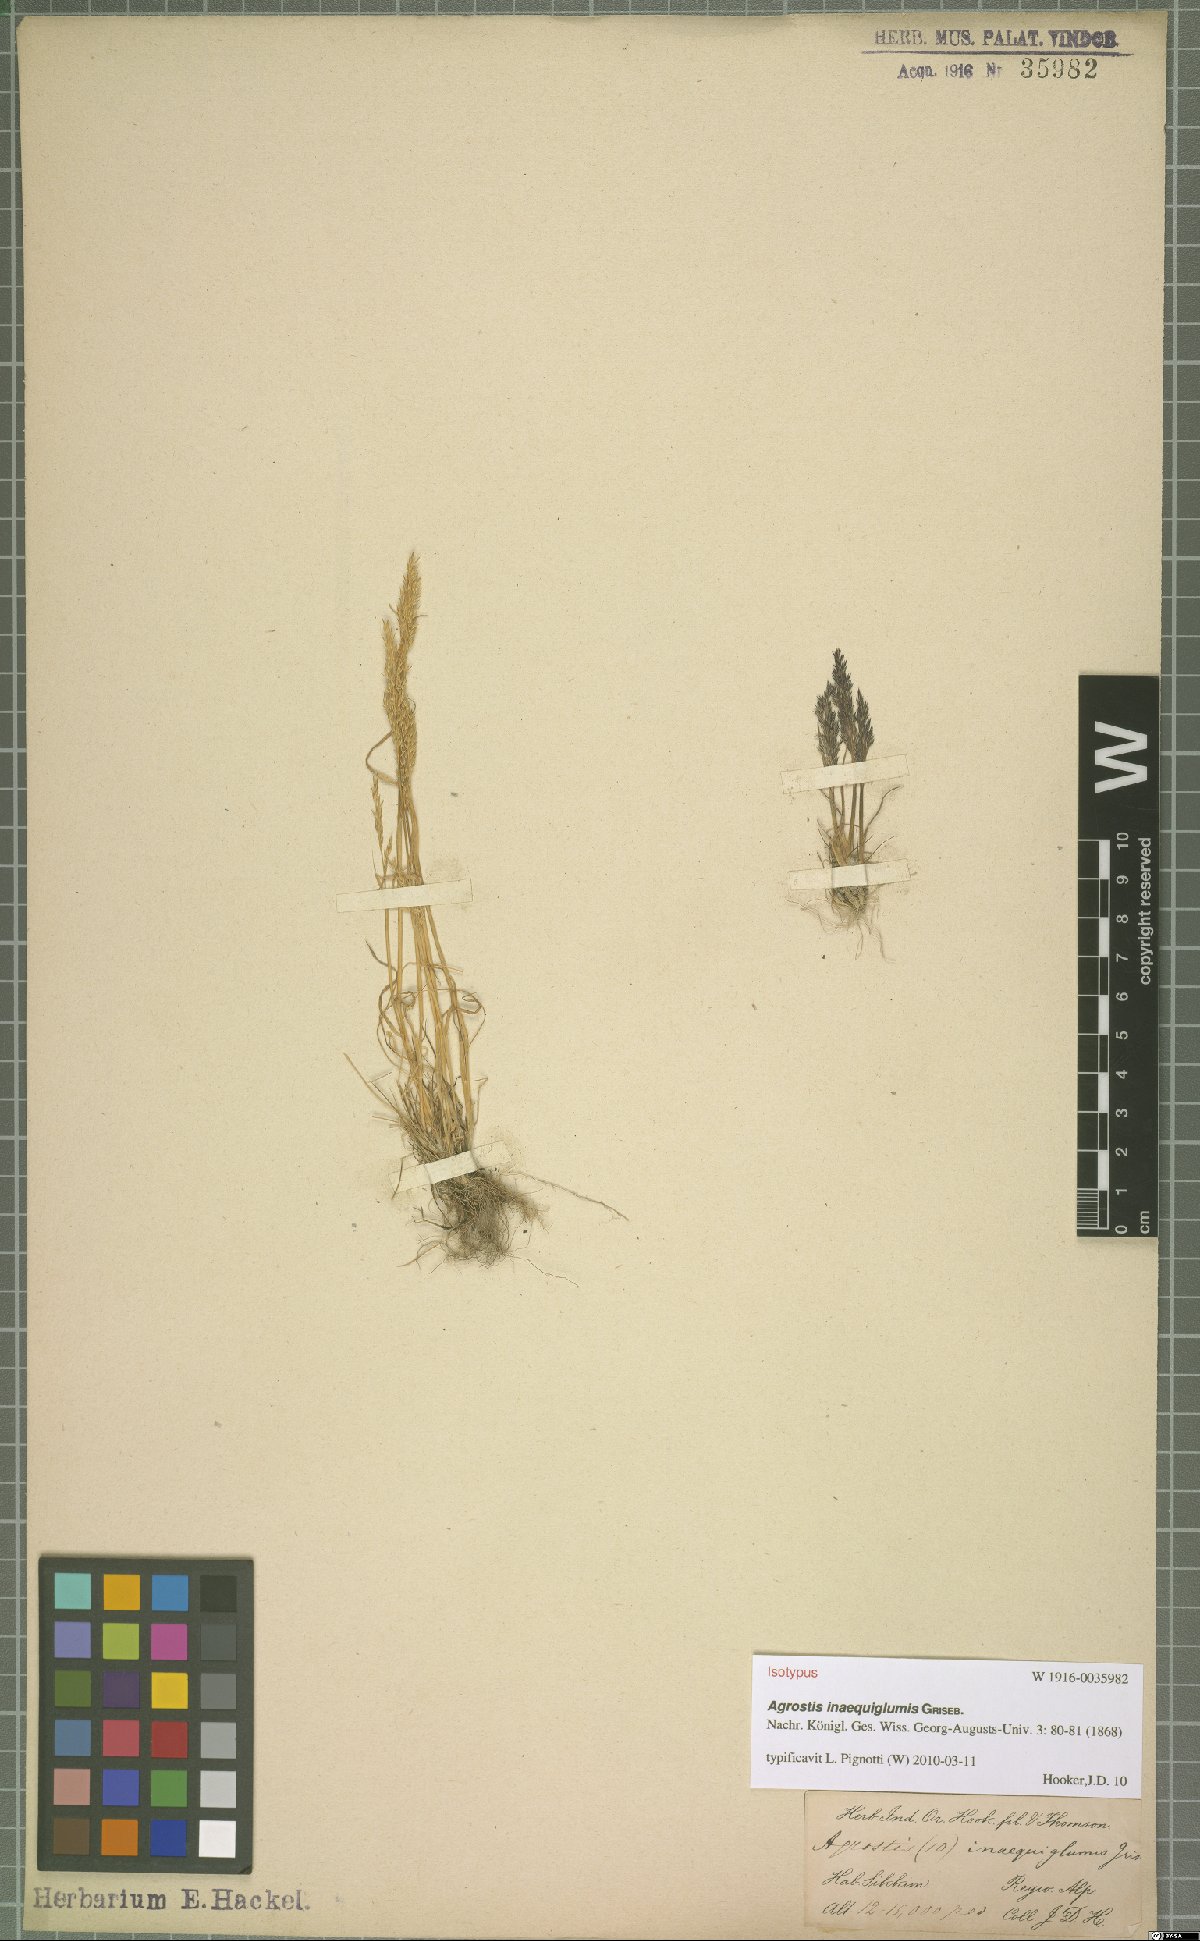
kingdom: Plantae
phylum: Tracheophyta
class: Liliopsida
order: Poales
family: Poaceae
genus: Agrostis
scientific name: Agrostis inaequiglumis
